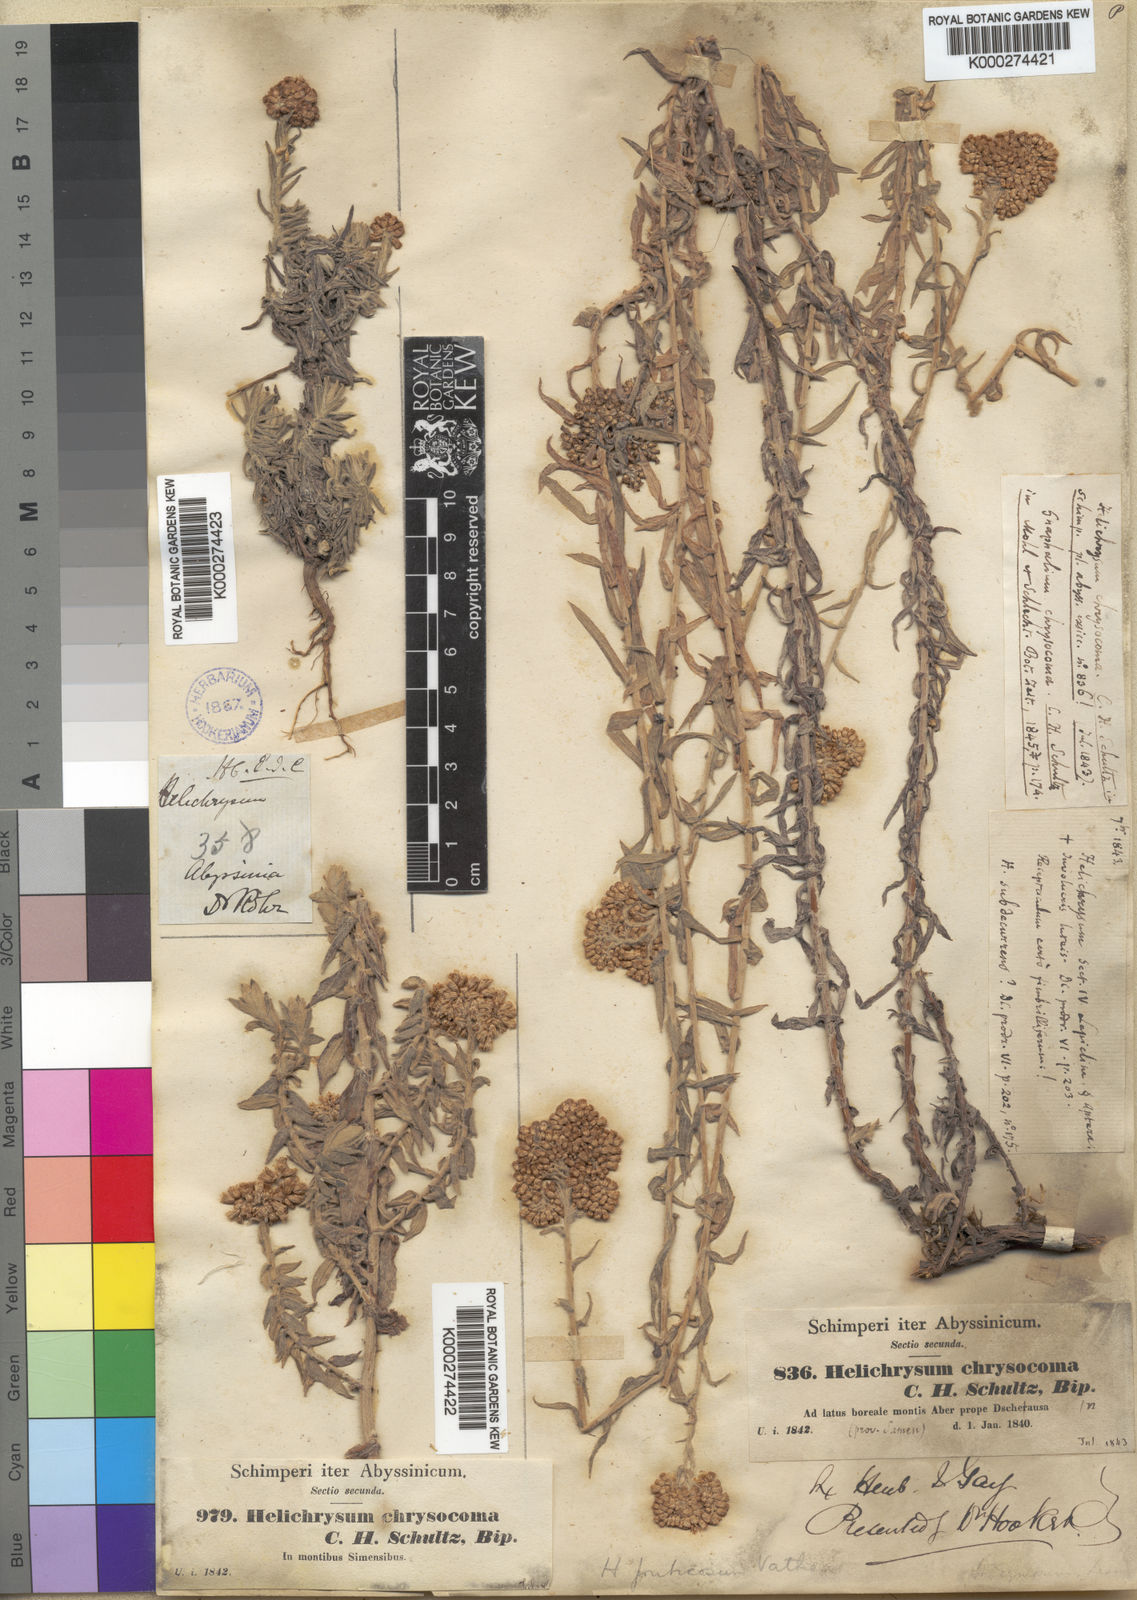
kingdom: Plantae
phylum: Tracheophyta
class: Magnoliopsida
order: Asterales
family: Asteraceae
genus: Helichrysum
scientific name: Helichrysum forskahlii
